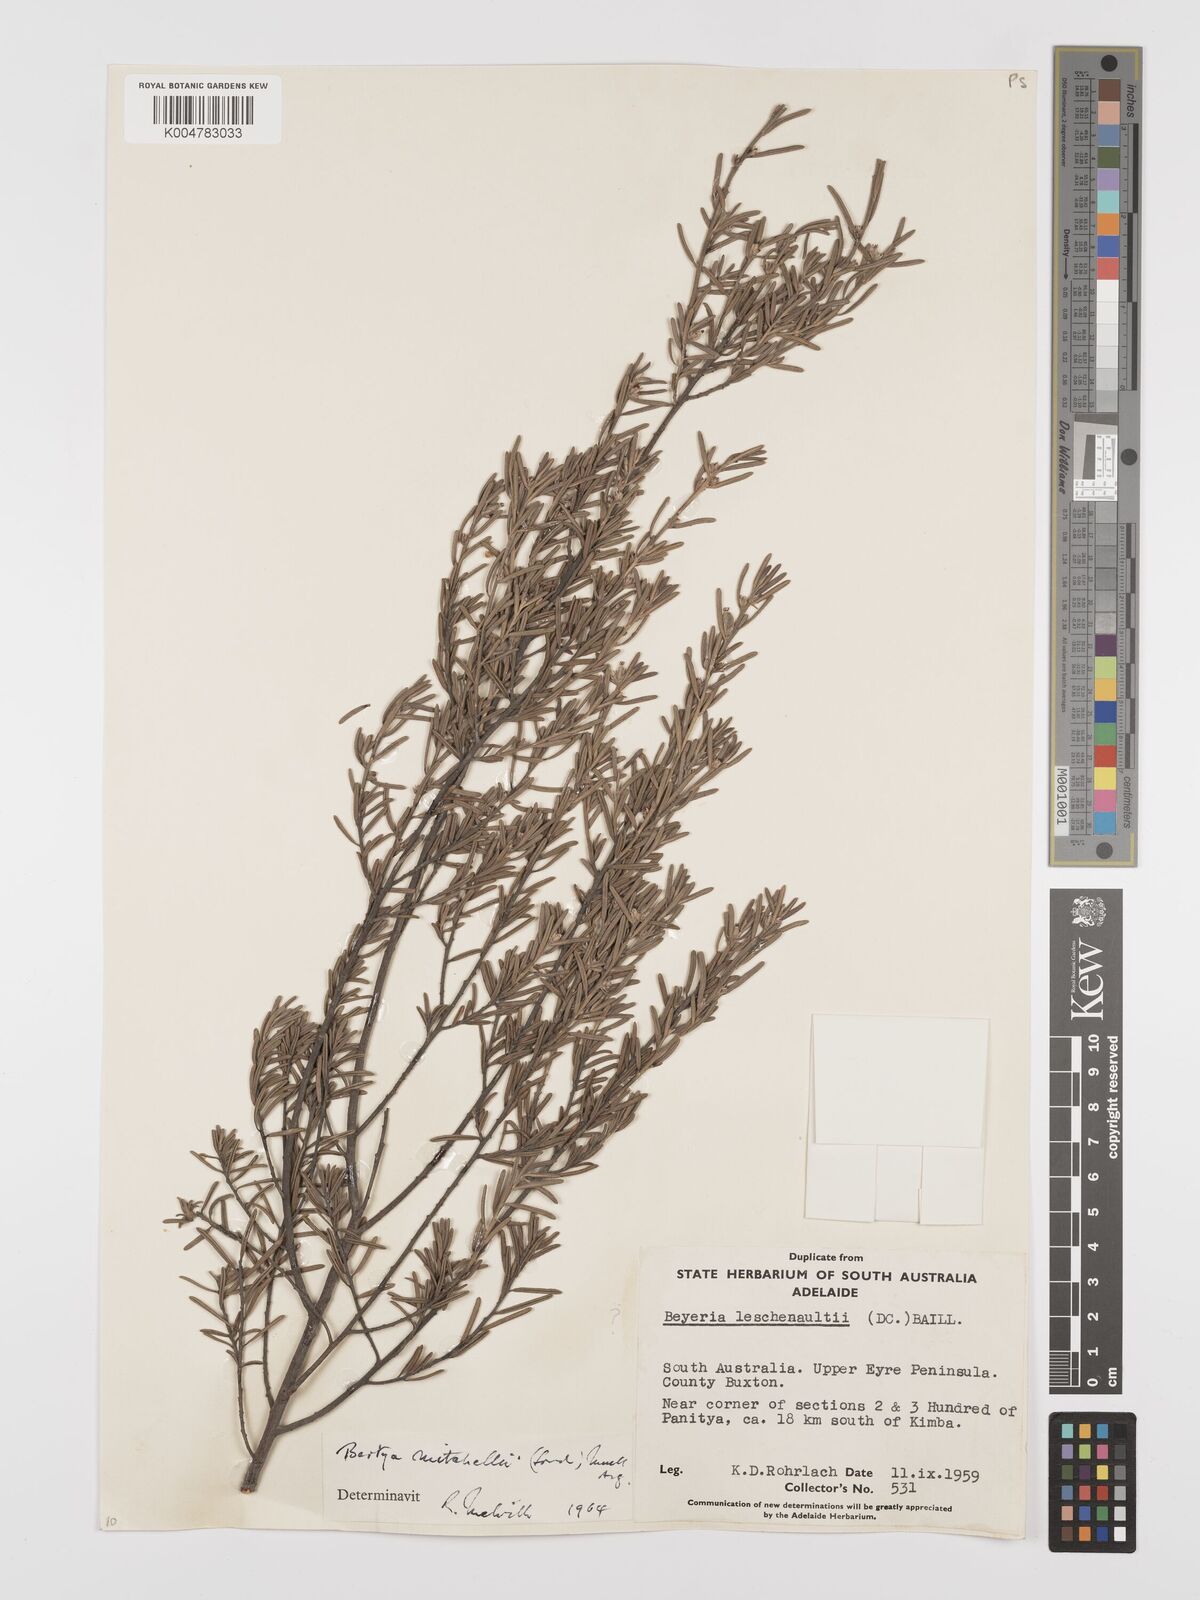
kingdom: Plantae
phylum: Tracheophyta
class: Magnoliopsida
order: Malpighiales
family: Euphorbiaceae
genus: Bertya
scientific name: Bertya oleifolia
